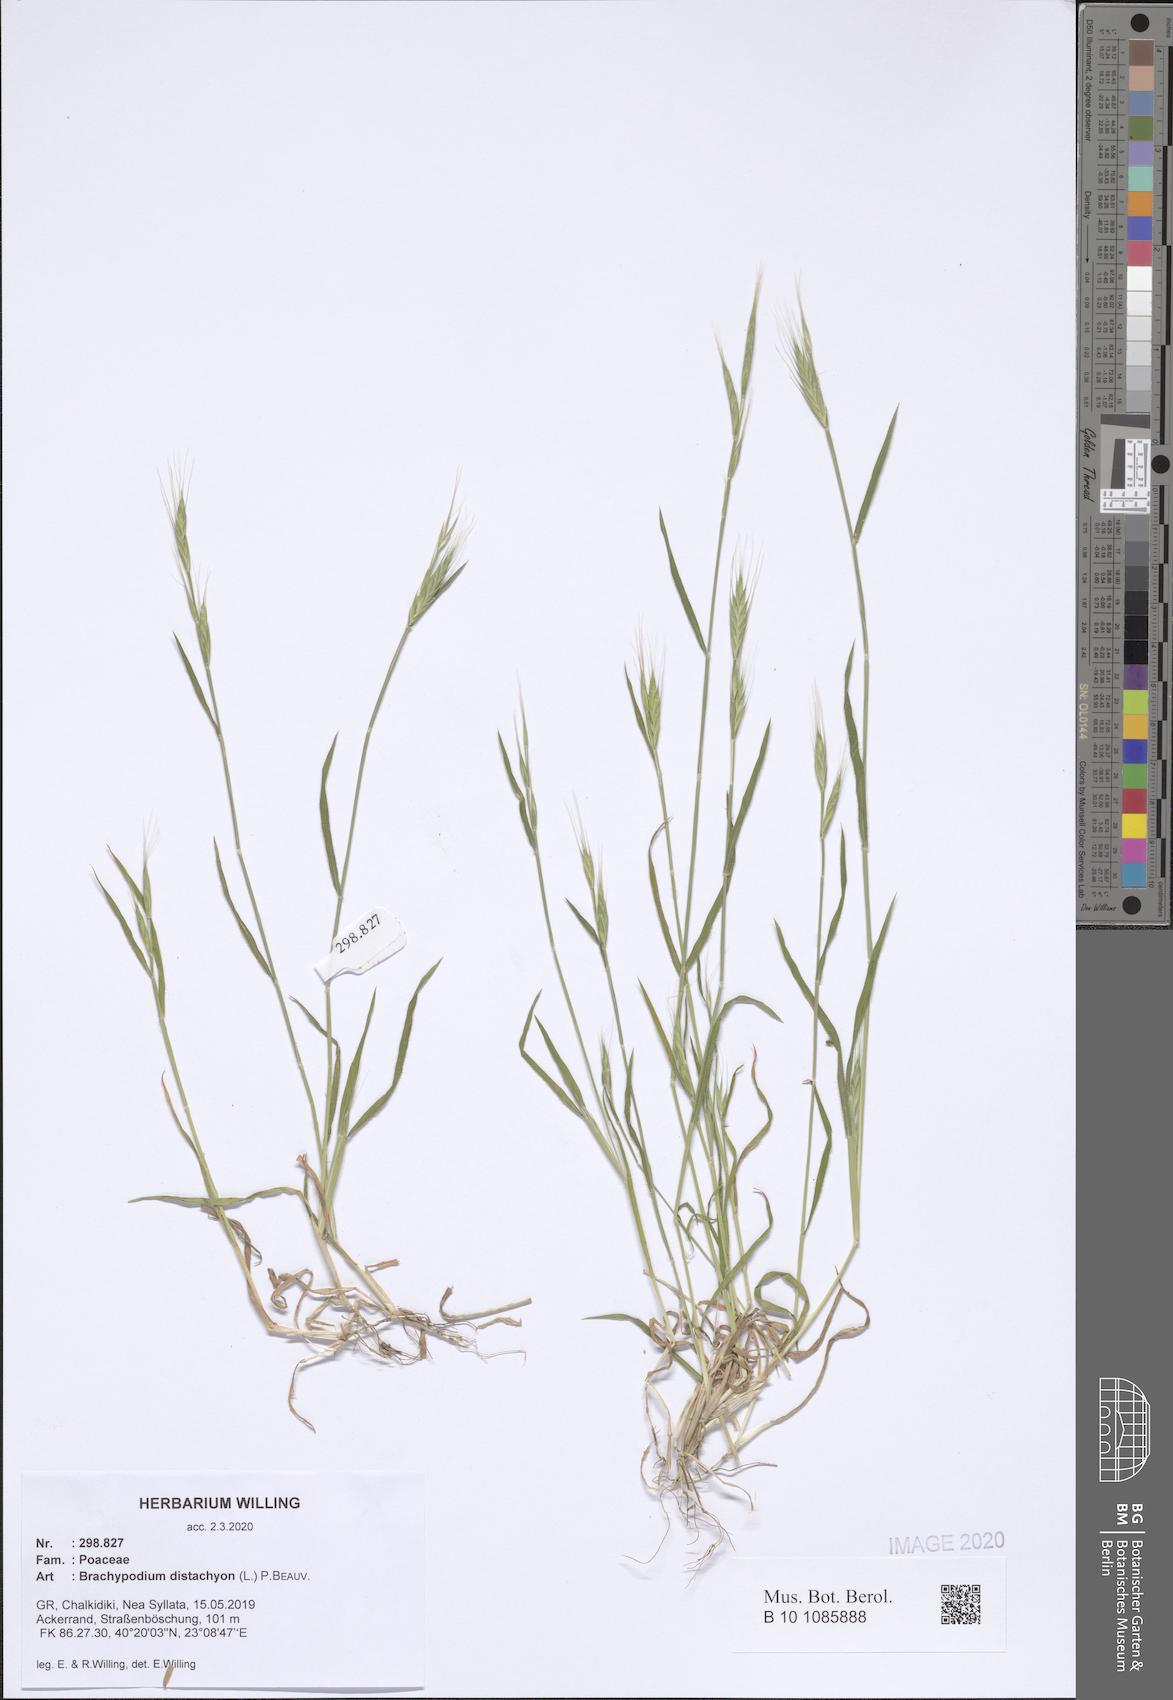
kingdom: Plantae
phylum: Tracheophyta
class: Liliopsida
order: Poales
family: Poaceae
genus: Brachypodium
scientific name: Brachypodium distachyon
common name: Stiff brome
